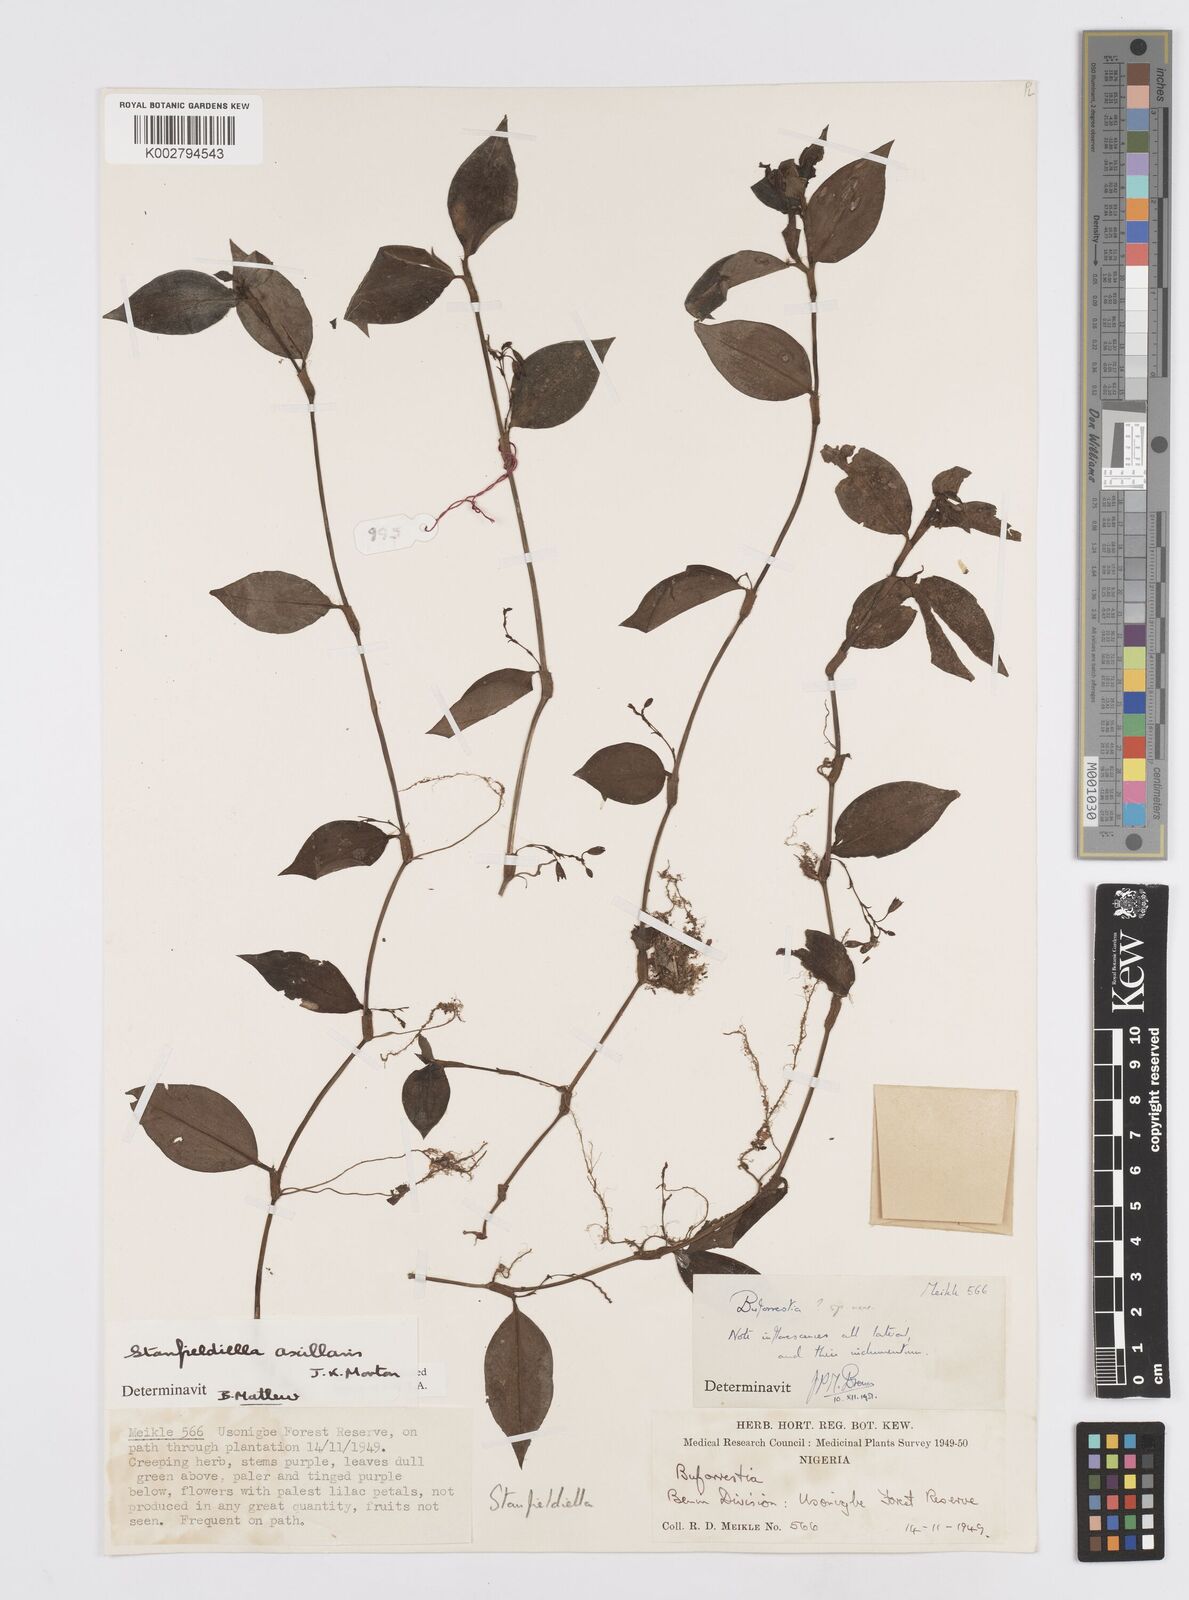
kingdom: Plantae
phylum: Tracheophyta
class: Liliopsida
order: Commelinales
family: Commelinaceae
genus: Stanfieldiella
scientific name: Stanfieldiella axillaris
